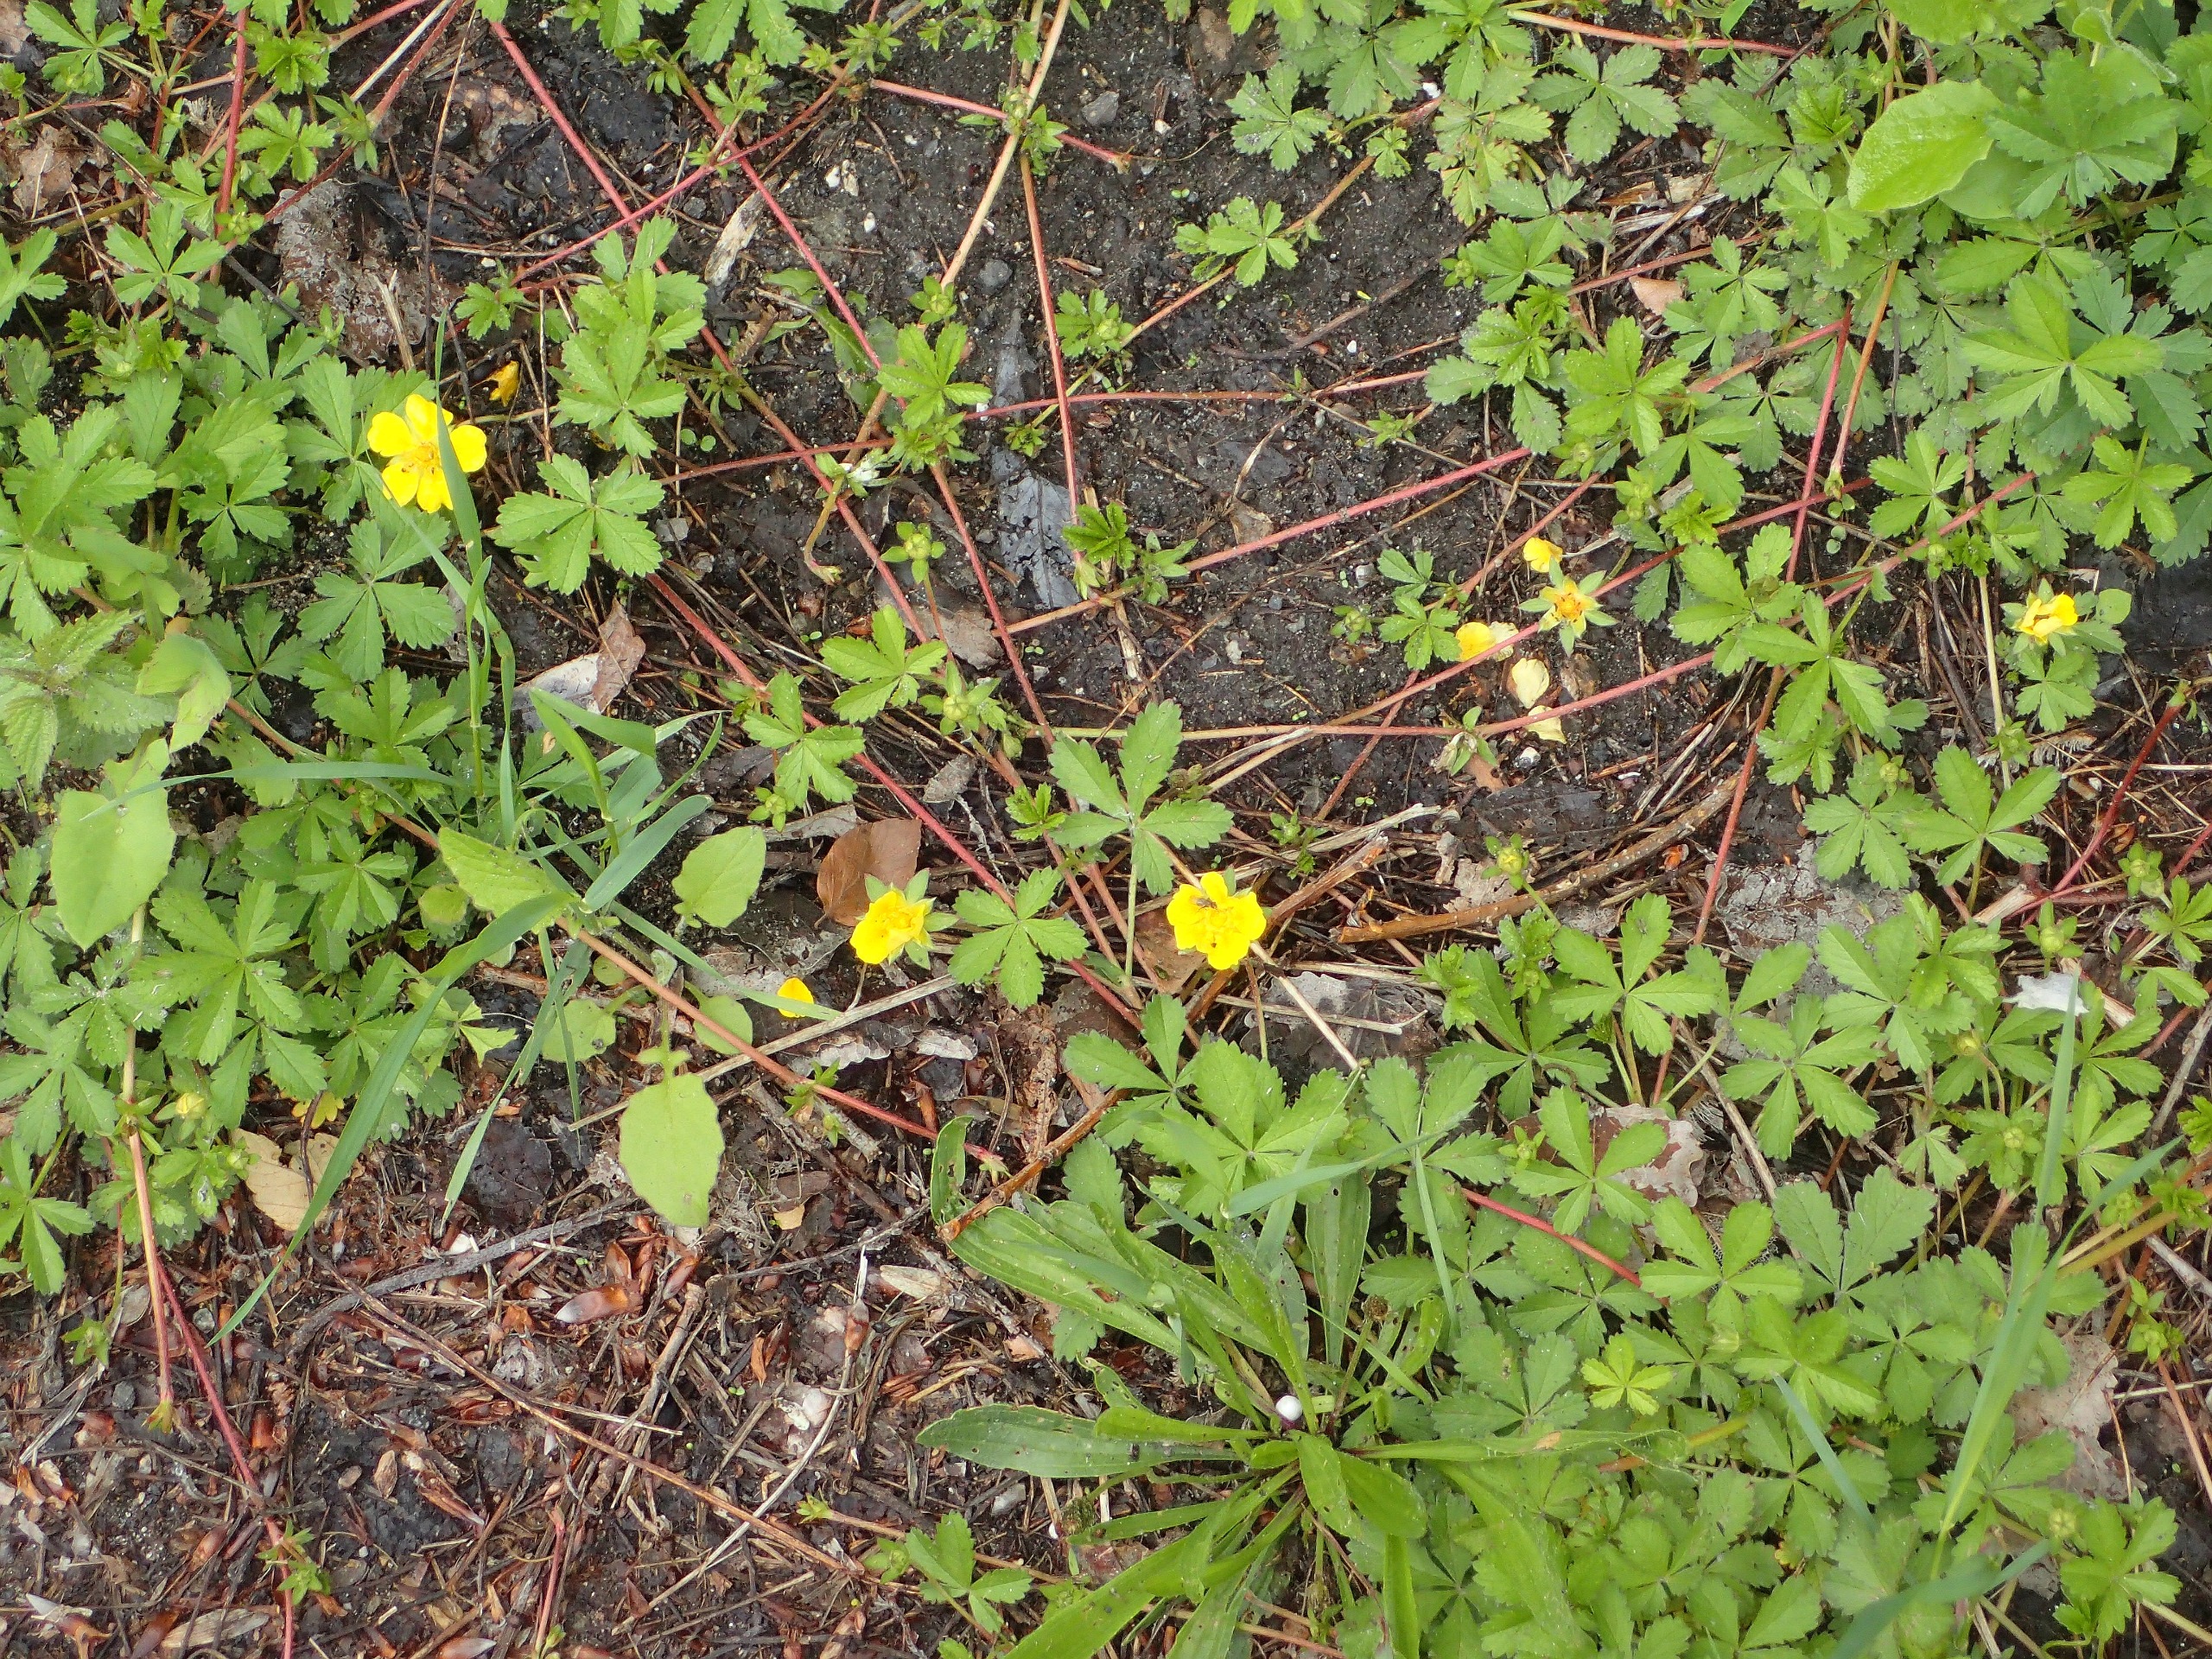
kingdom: Plantae
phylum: Tracheophyta
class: Magnoliopsida
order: Rosales
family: Rosaceae
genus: Potentilla
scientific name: Potentilla reptans
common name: Krybende potentil
